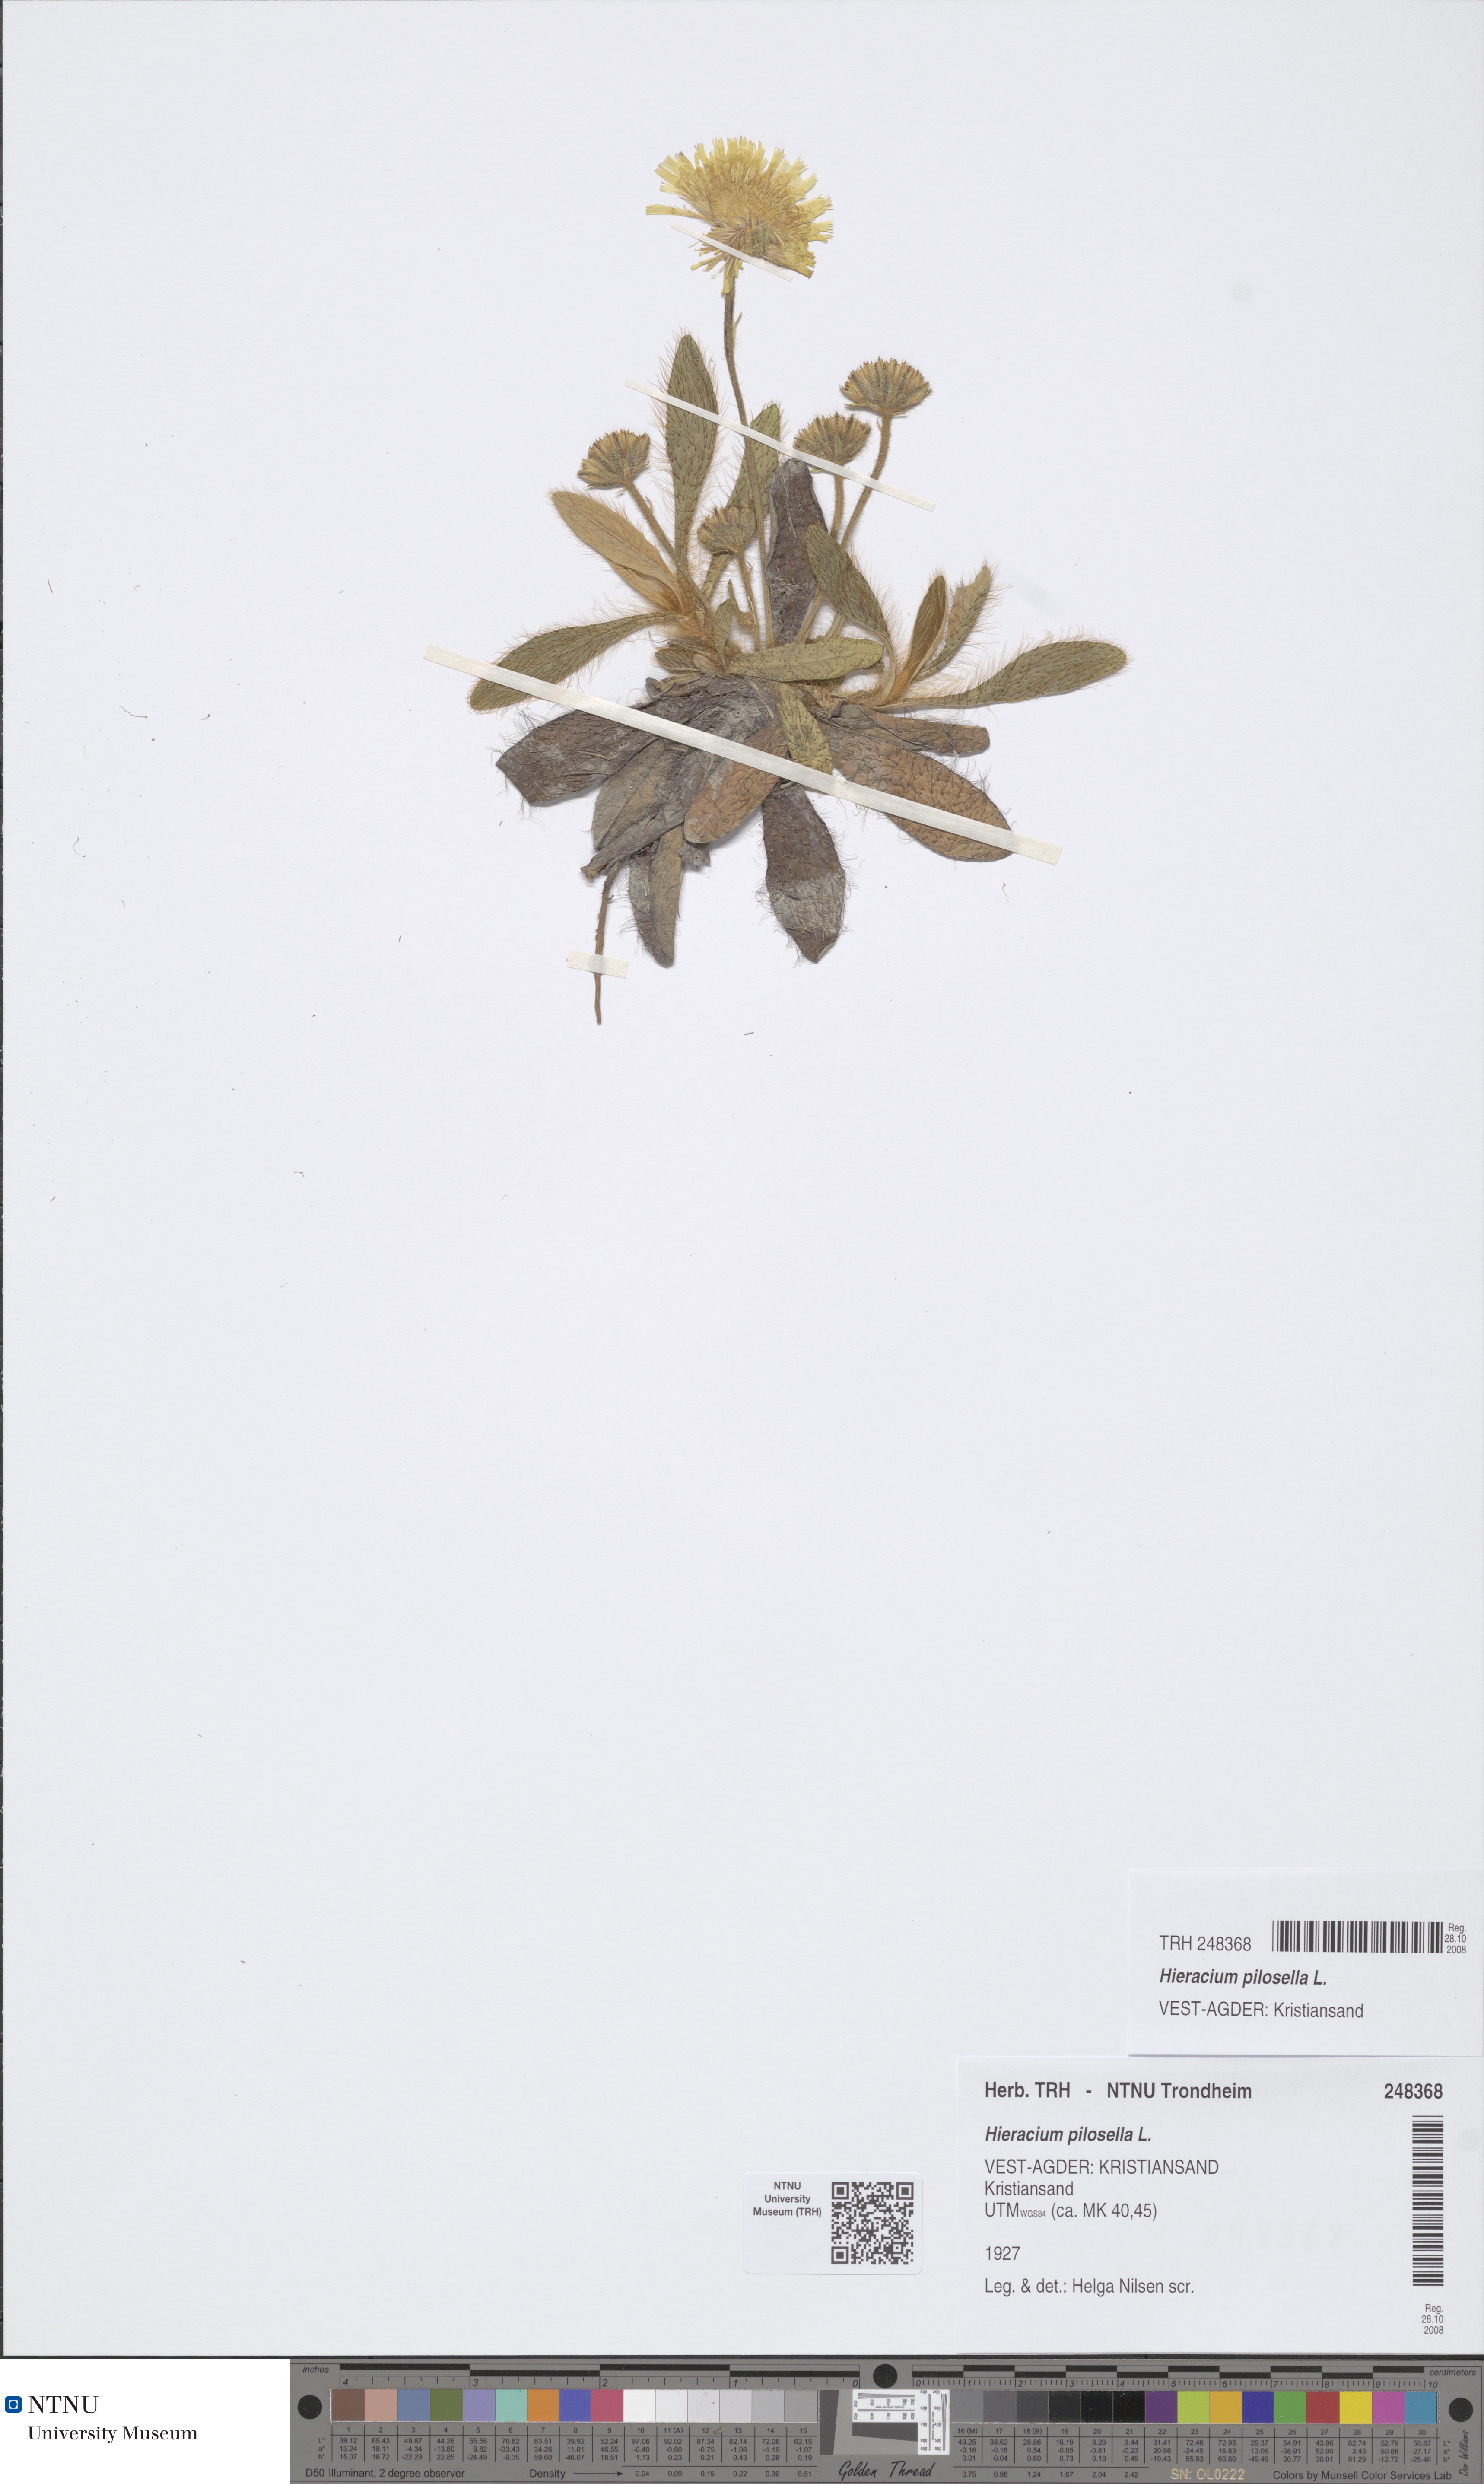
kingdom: Plantae
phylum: Tracheophyta
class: Magnoliopsida
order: Asterales
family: Asteraceae
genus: Pilosella
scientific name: Pilosella officinarum
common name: Mouse-ear hawkweed
